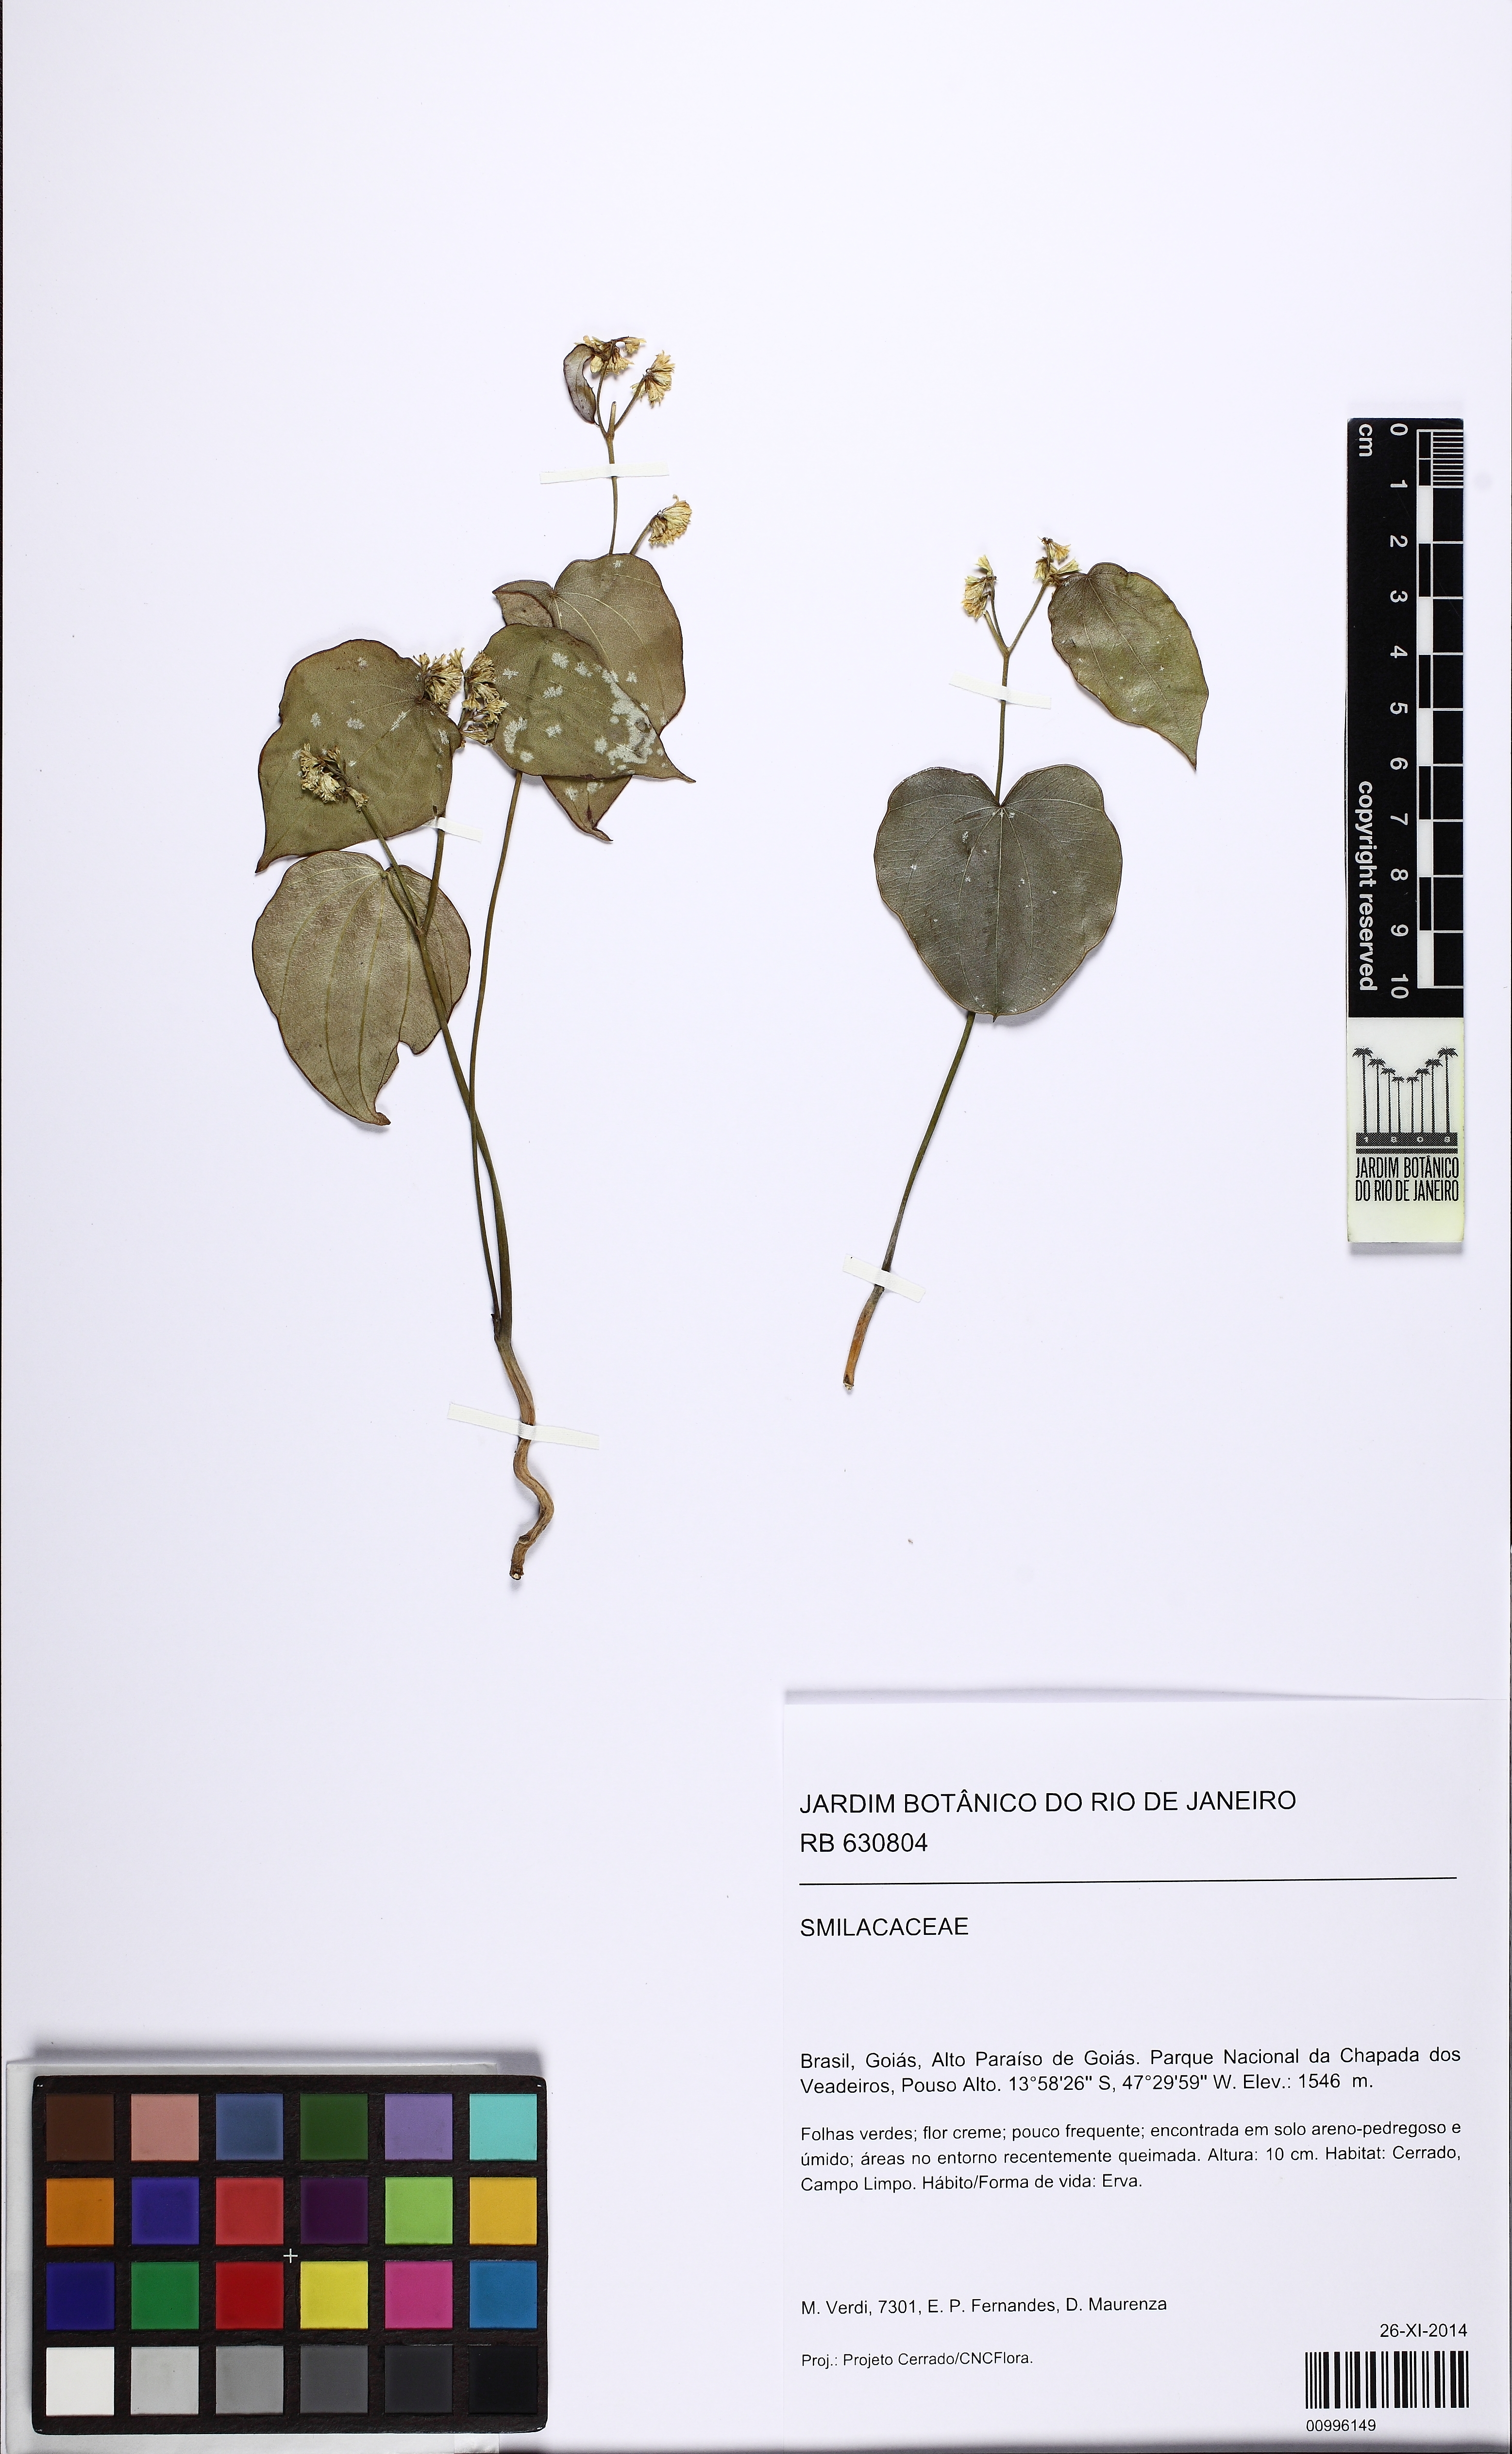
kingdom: Plantae
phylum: Tracheophyta
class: Liliopsida
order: Liliales
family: Smilacaceae
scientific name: Smilacaceae
